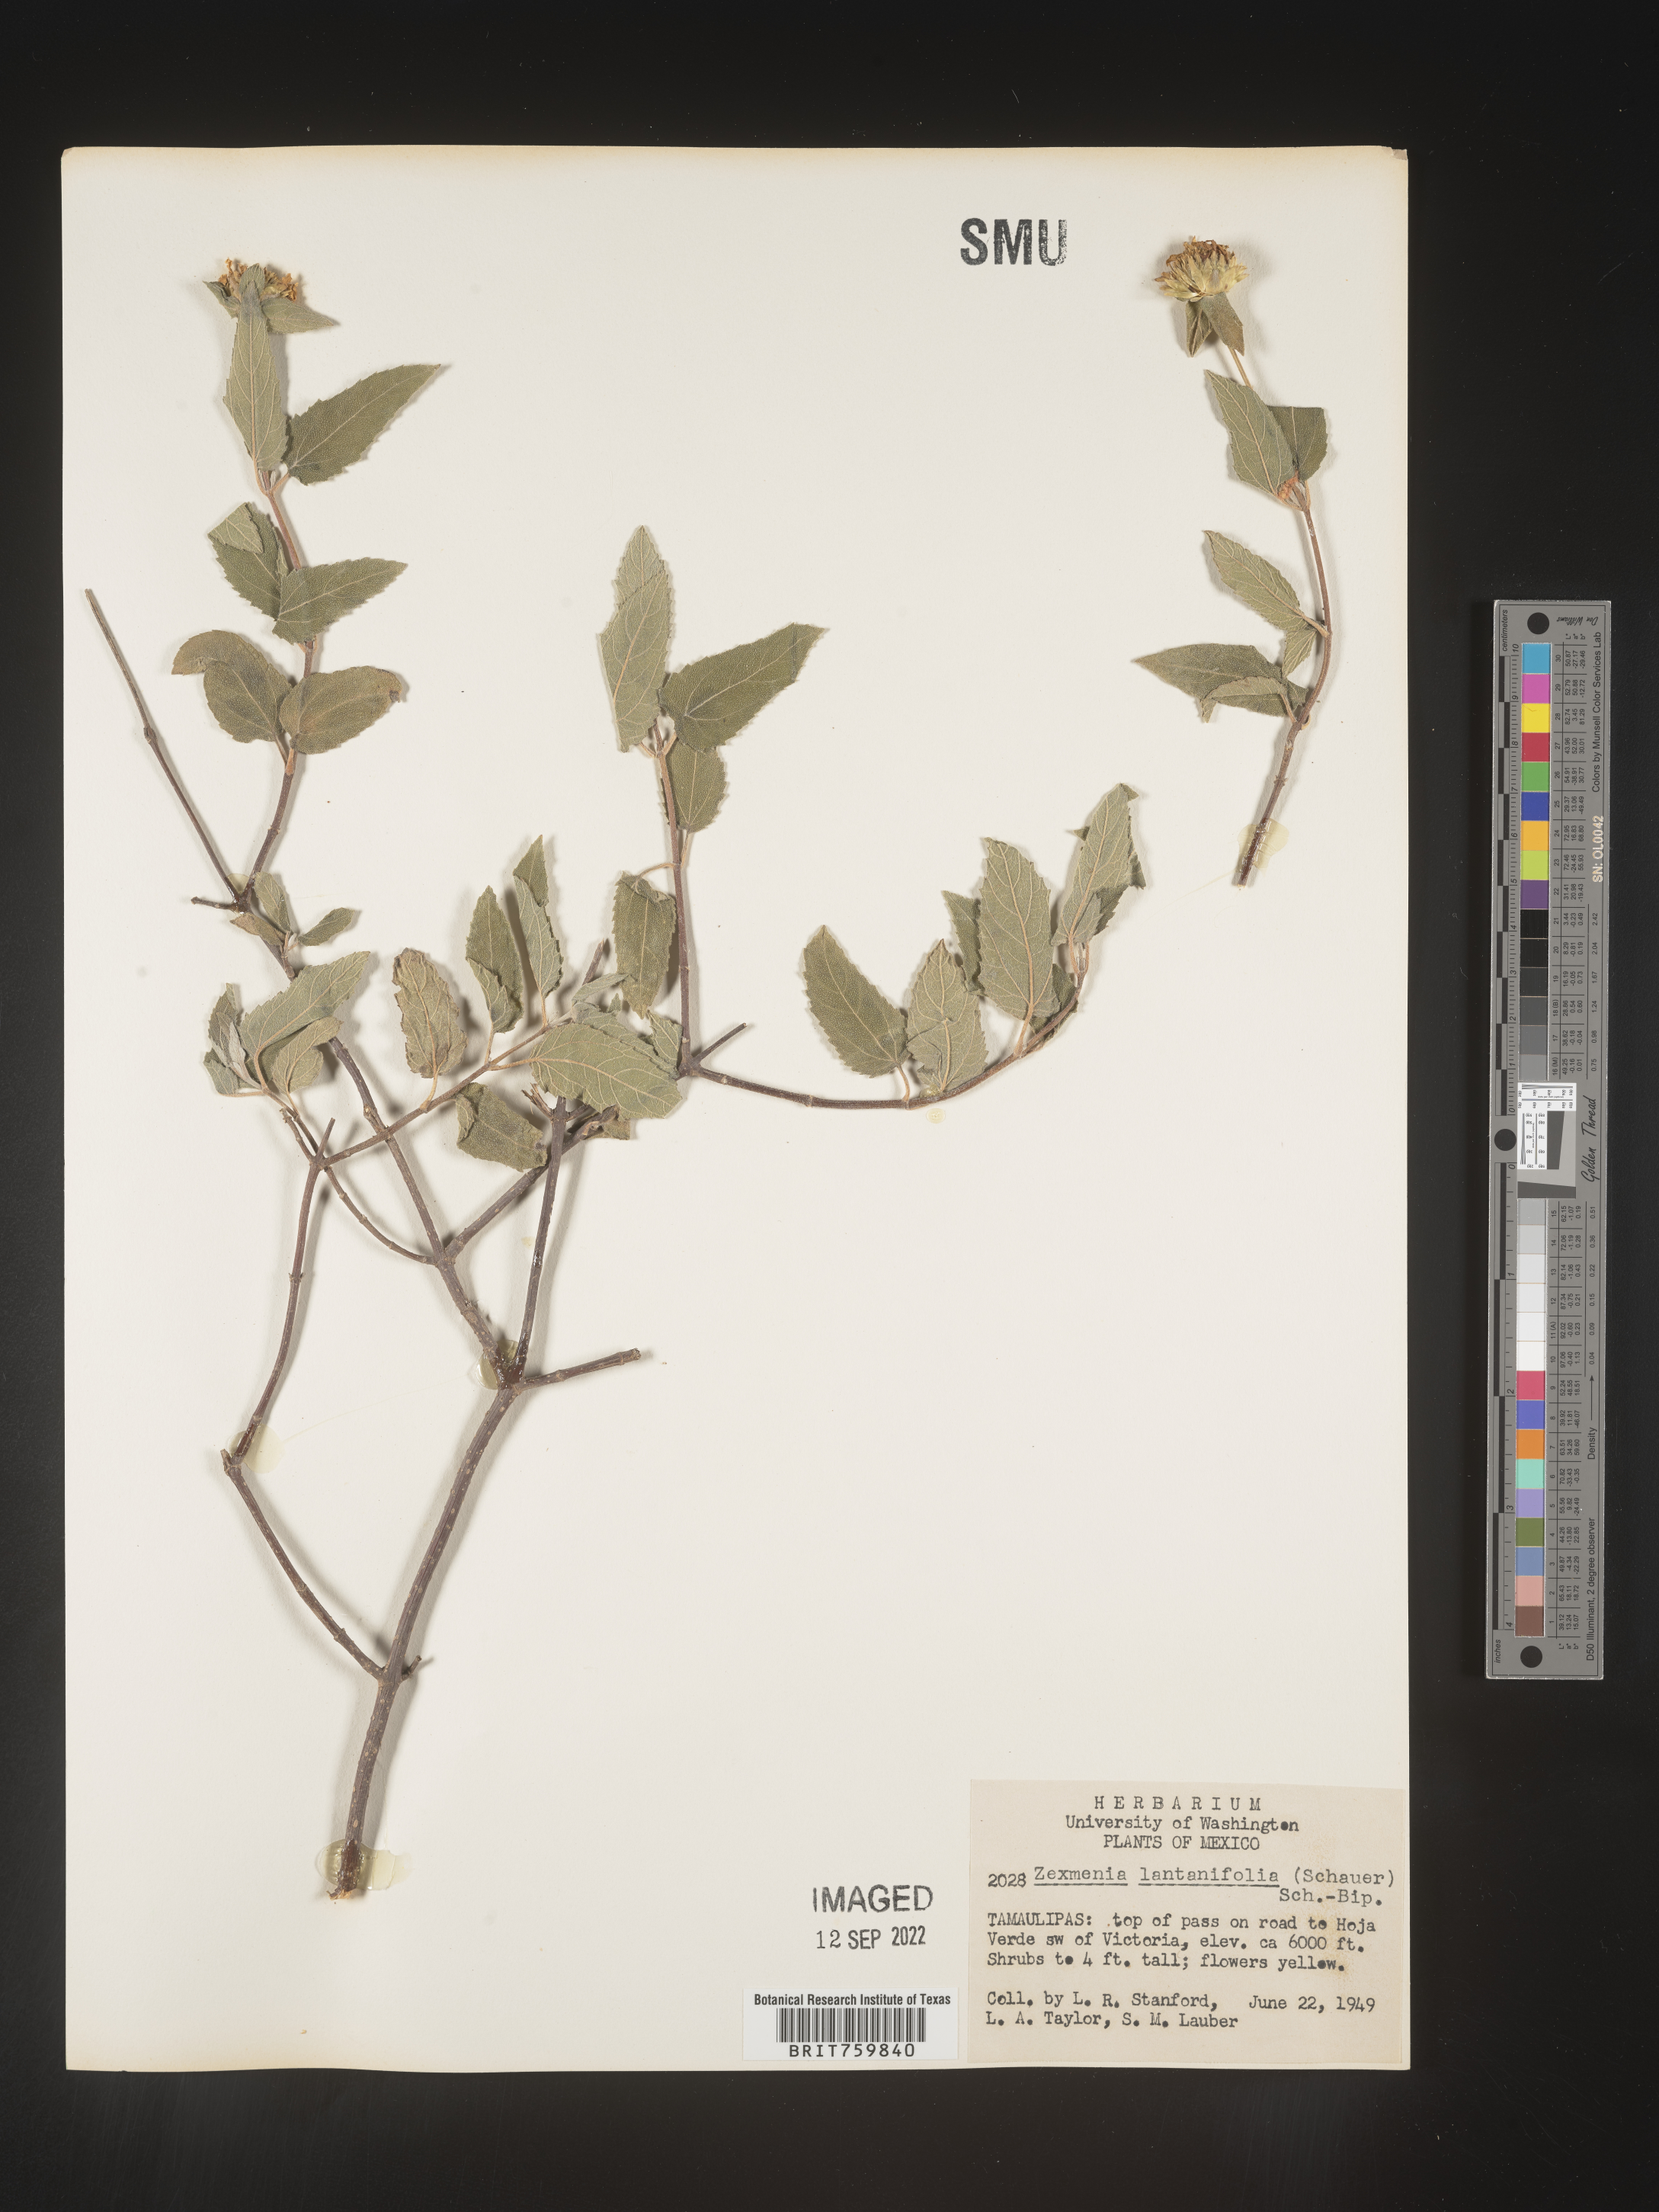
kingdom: Plantae
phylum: Tracheophyta
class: Magnoliopsida
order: Asterales
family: Asteraceae
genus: Zexmenia
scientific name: Zexmenia
